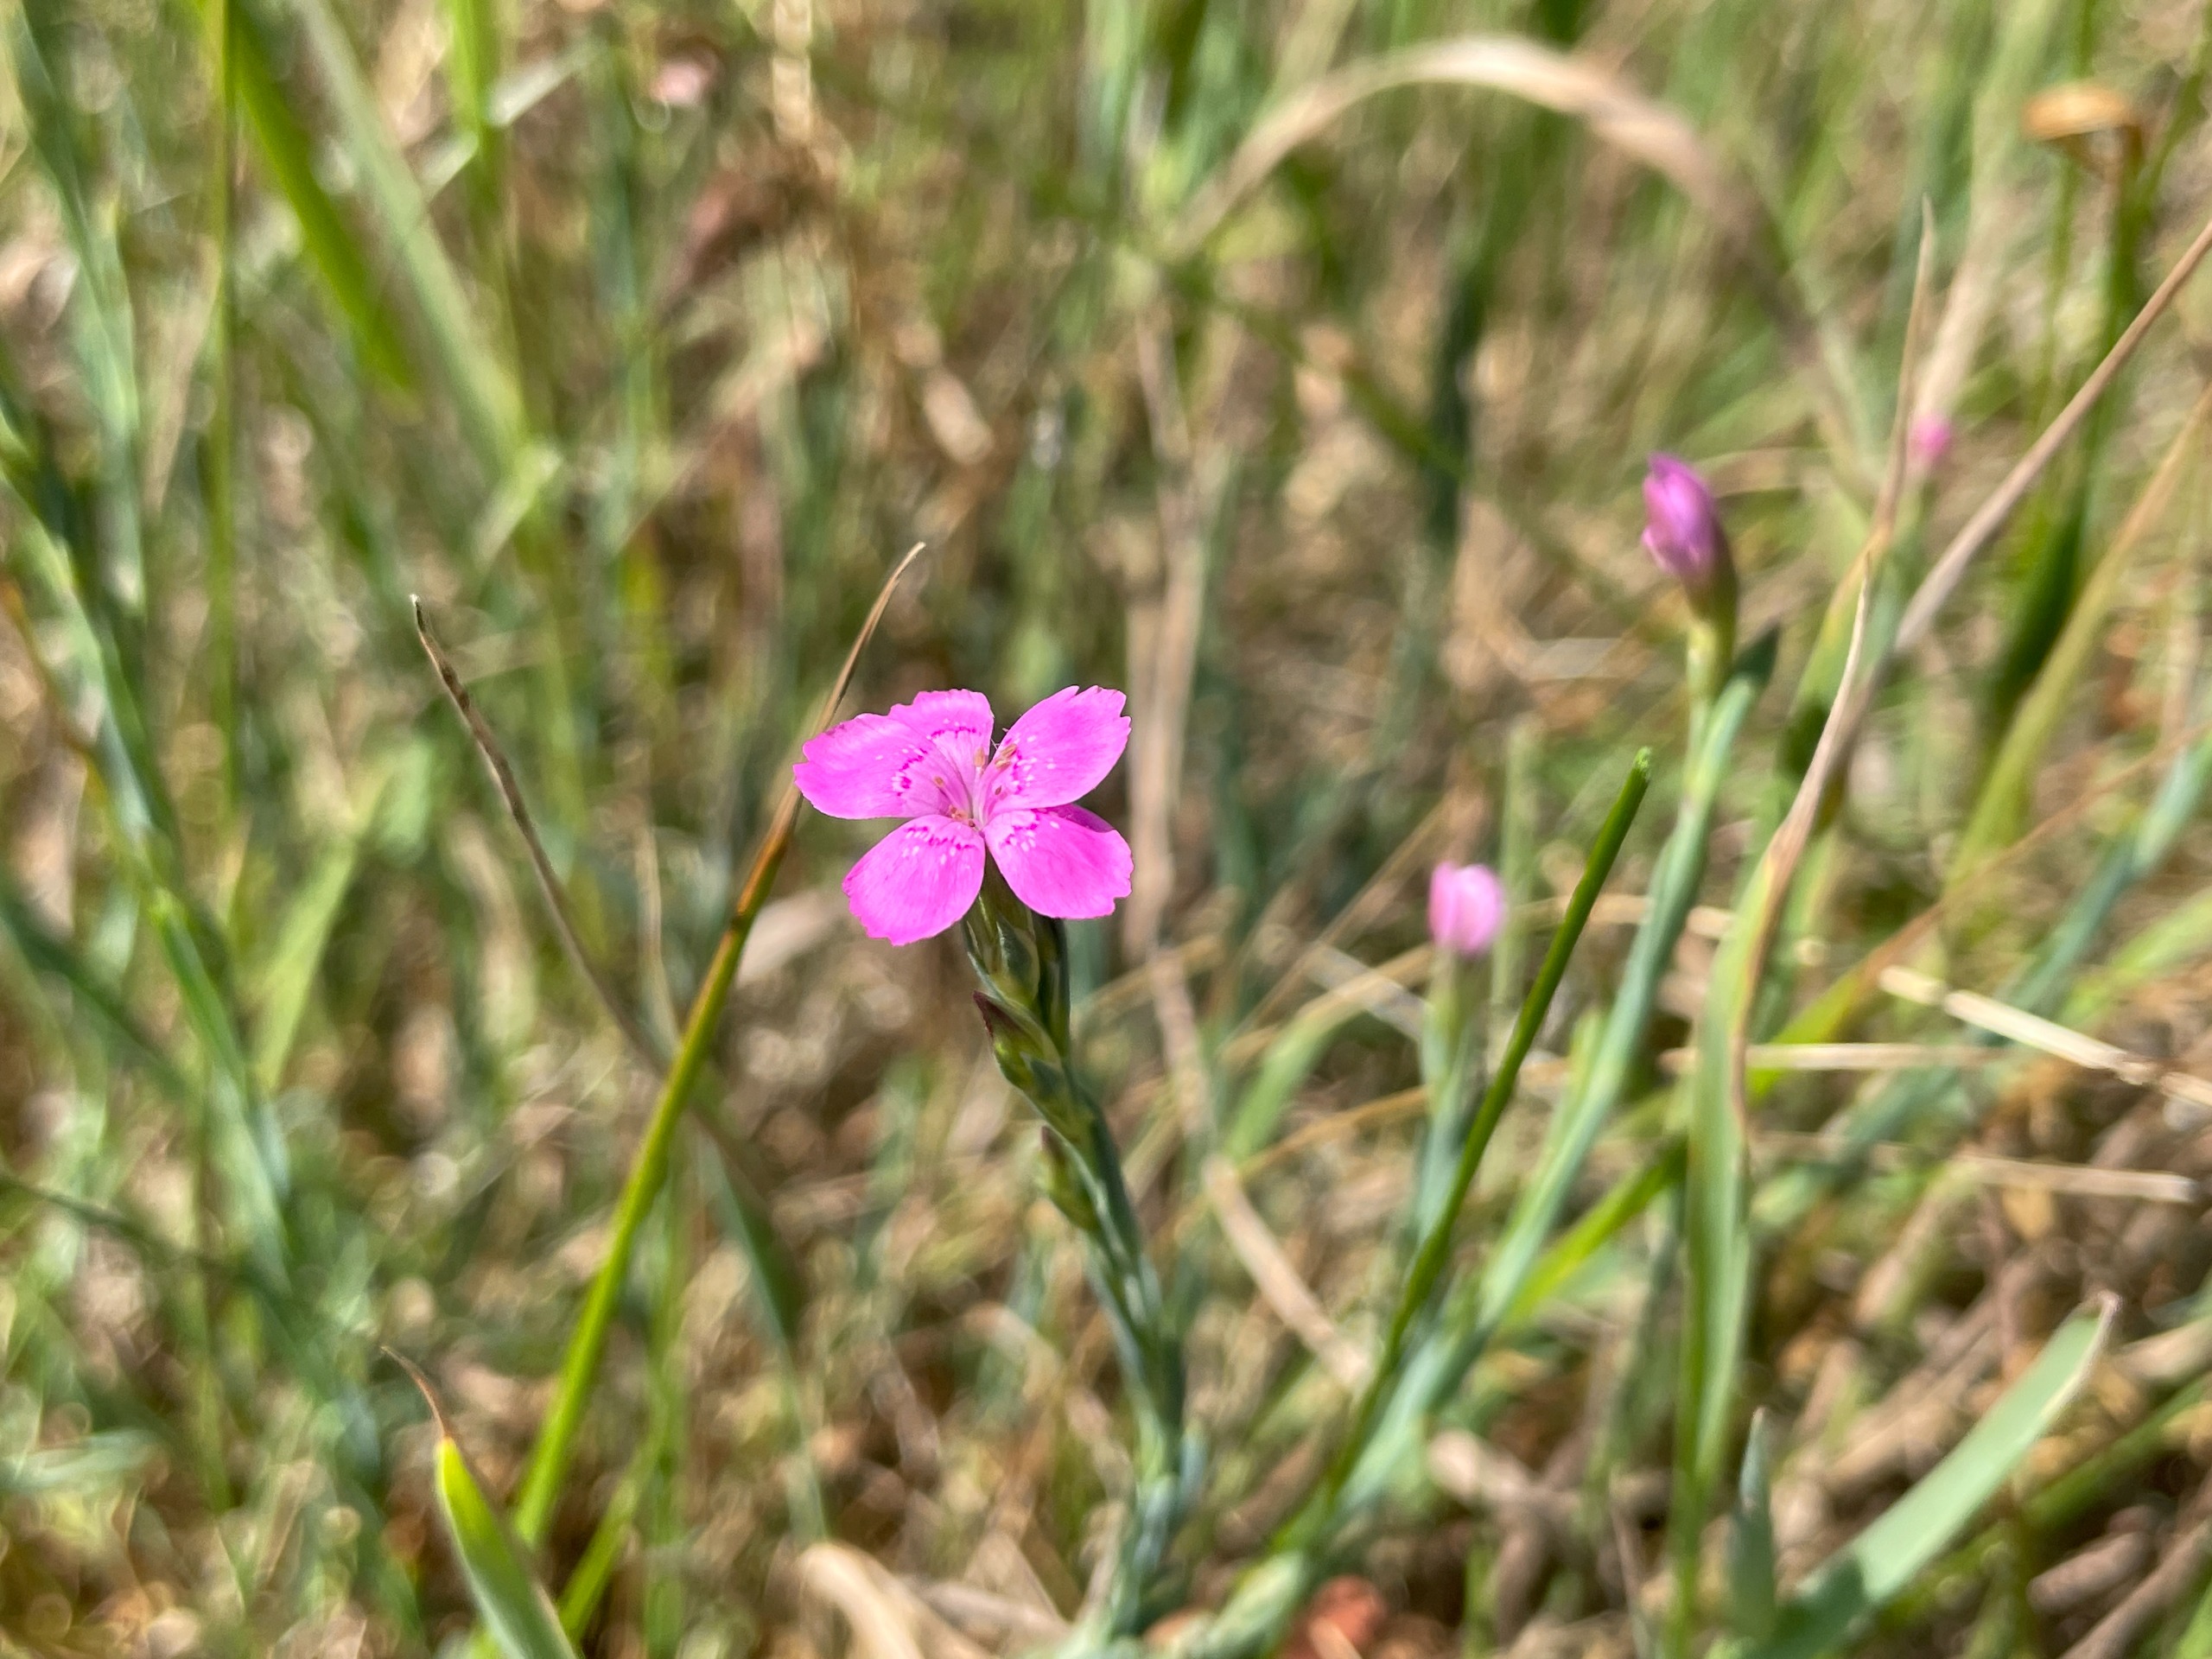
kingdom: Plantae
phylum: Tracheophyta
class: Magnoliopsida
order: Caryophyllales
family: Caryophyllaceae
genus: Dianthus
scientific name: Dianthus deltoides
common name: Bakke-nellike
